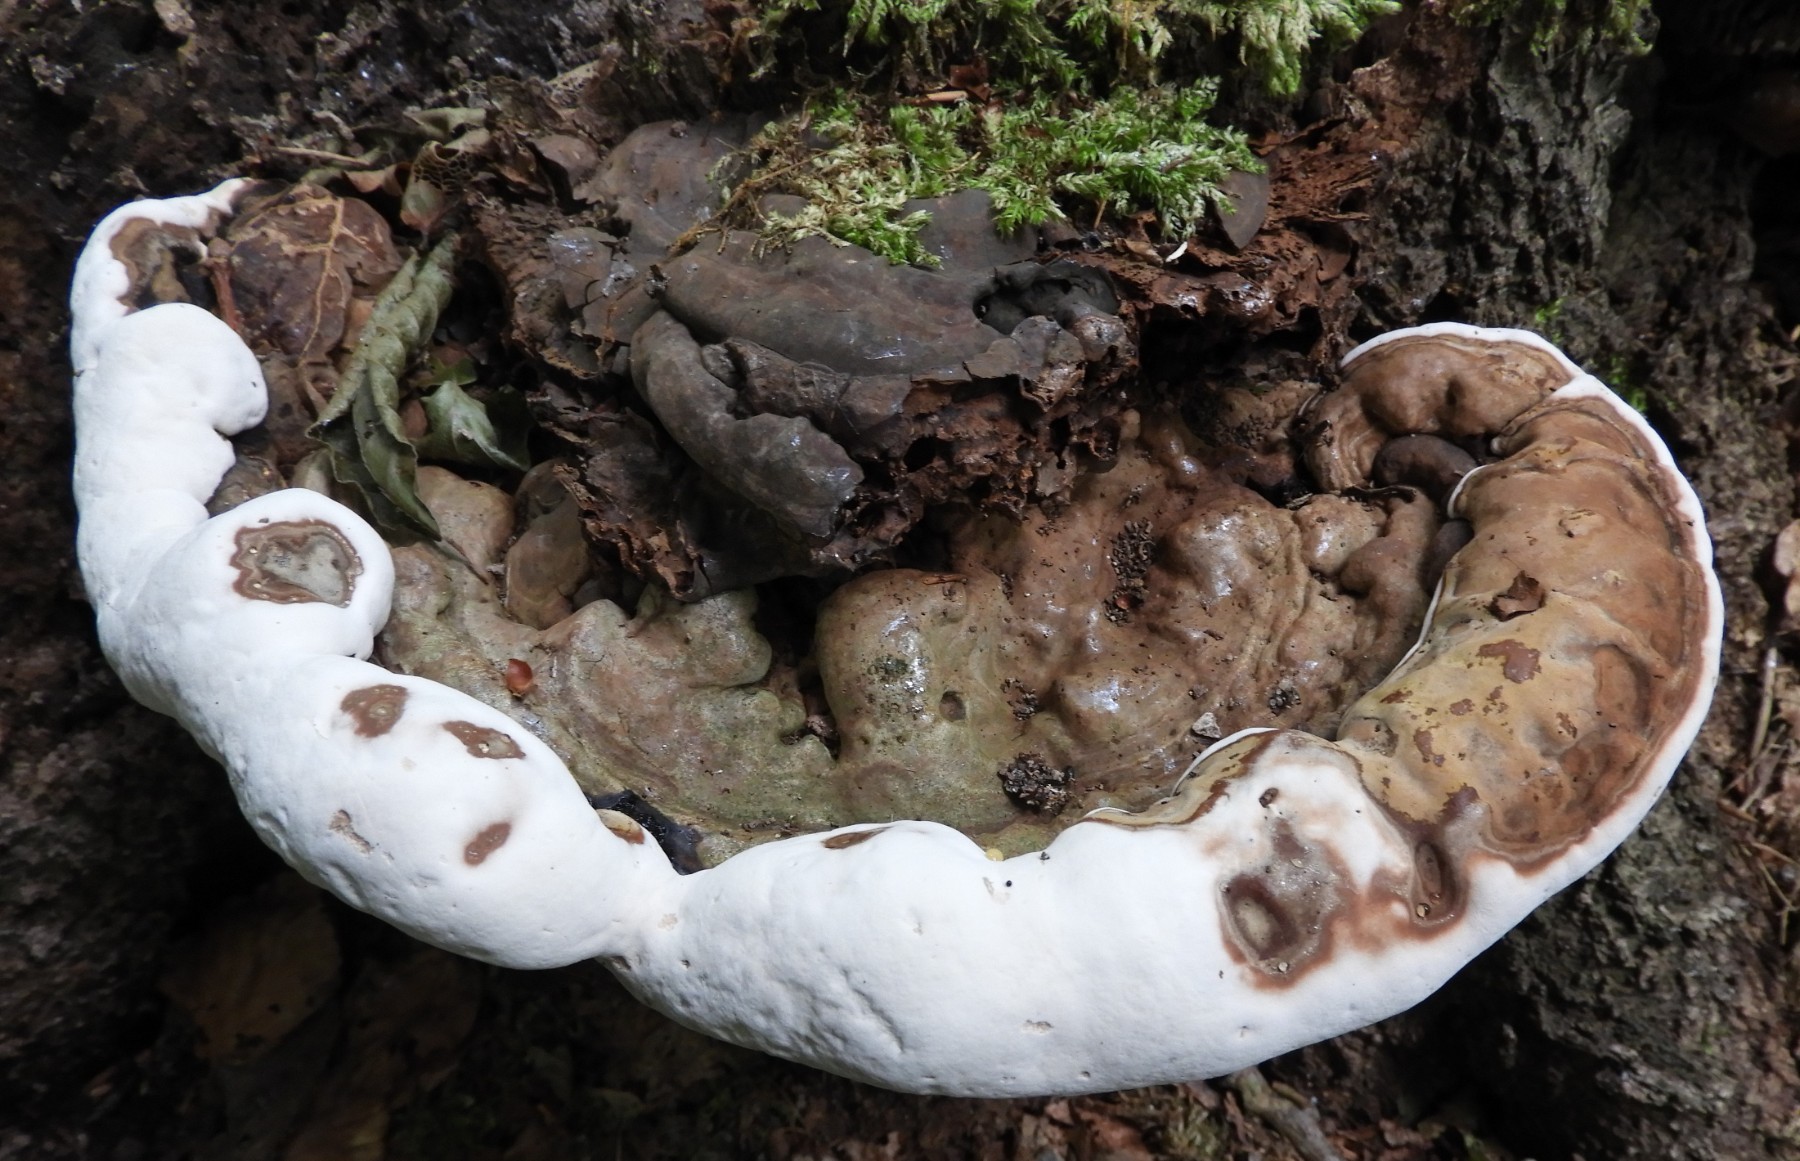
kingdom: Fungi
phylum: Basidiomycota
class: Agaricomycetes
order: Polyporales
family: Polyporaceae
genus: Ganoderma
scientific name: Ganoderma applanatum
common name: flad lakporesvamp
